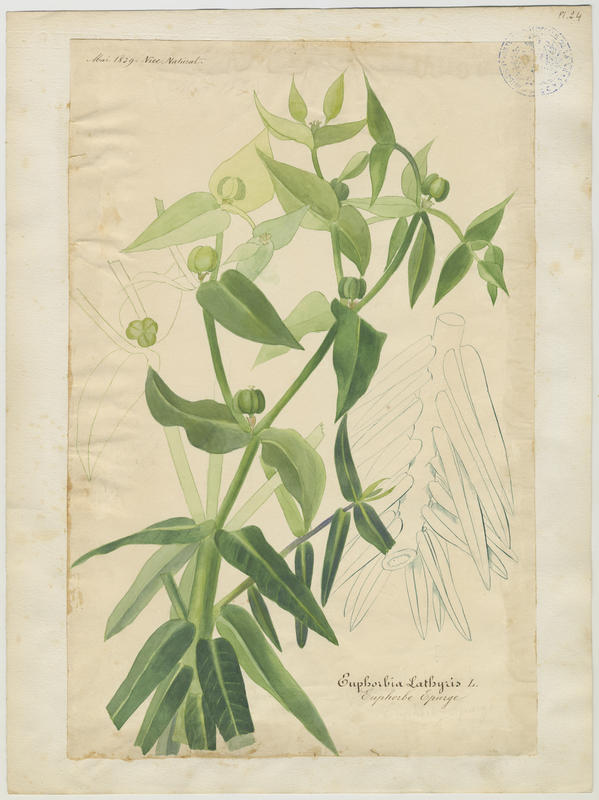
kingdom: Plantae
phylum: Tracheophyta
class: Magnoliopsida
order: Malpighiales
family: Euphorbiaceae
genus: Euphorbia
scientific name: Euphorbia lathyris
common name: Caper spurge
